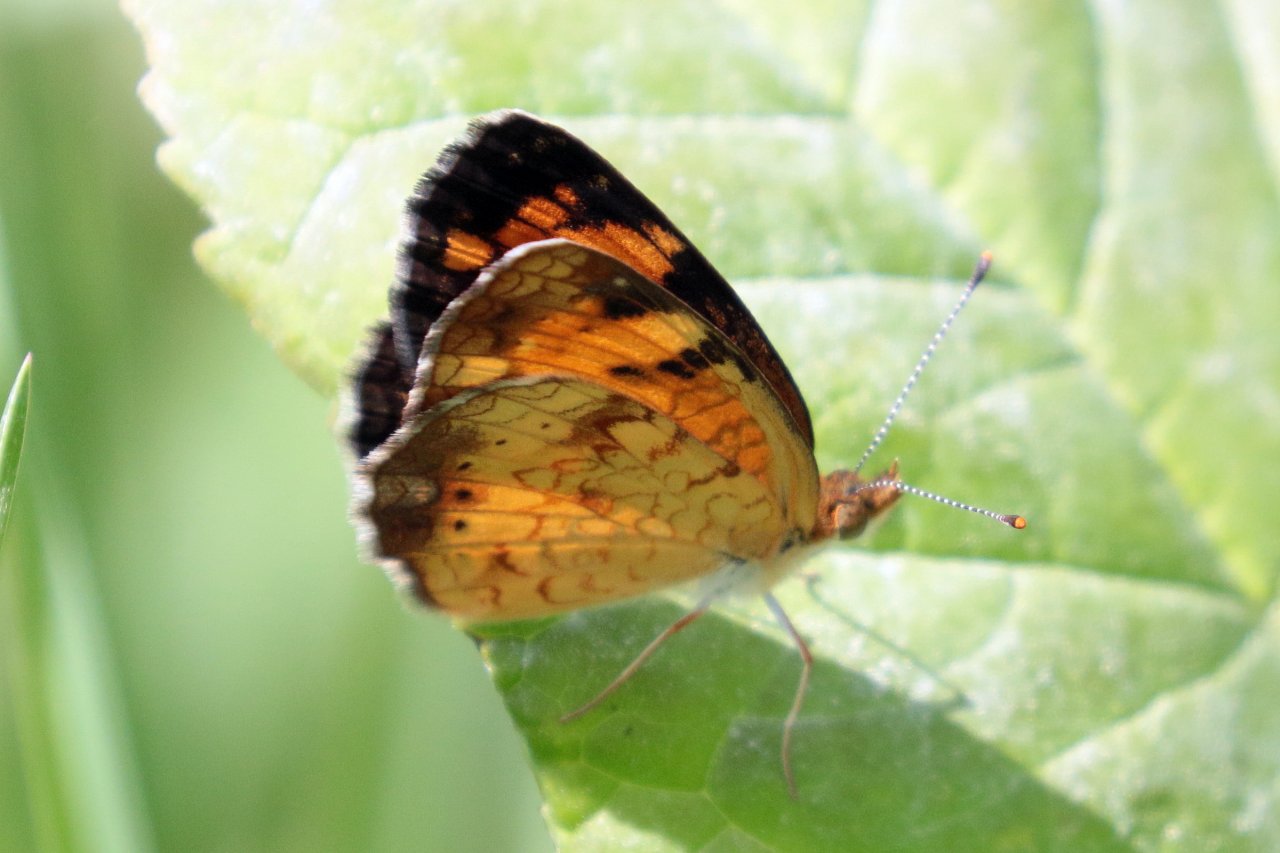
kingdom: Animalia
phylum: Arthropoda
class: Insecta
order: Lepidoptera
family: Nymphalidae
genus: Phyciodes
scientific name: Phyciodes tharos
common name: Northern Crescent
